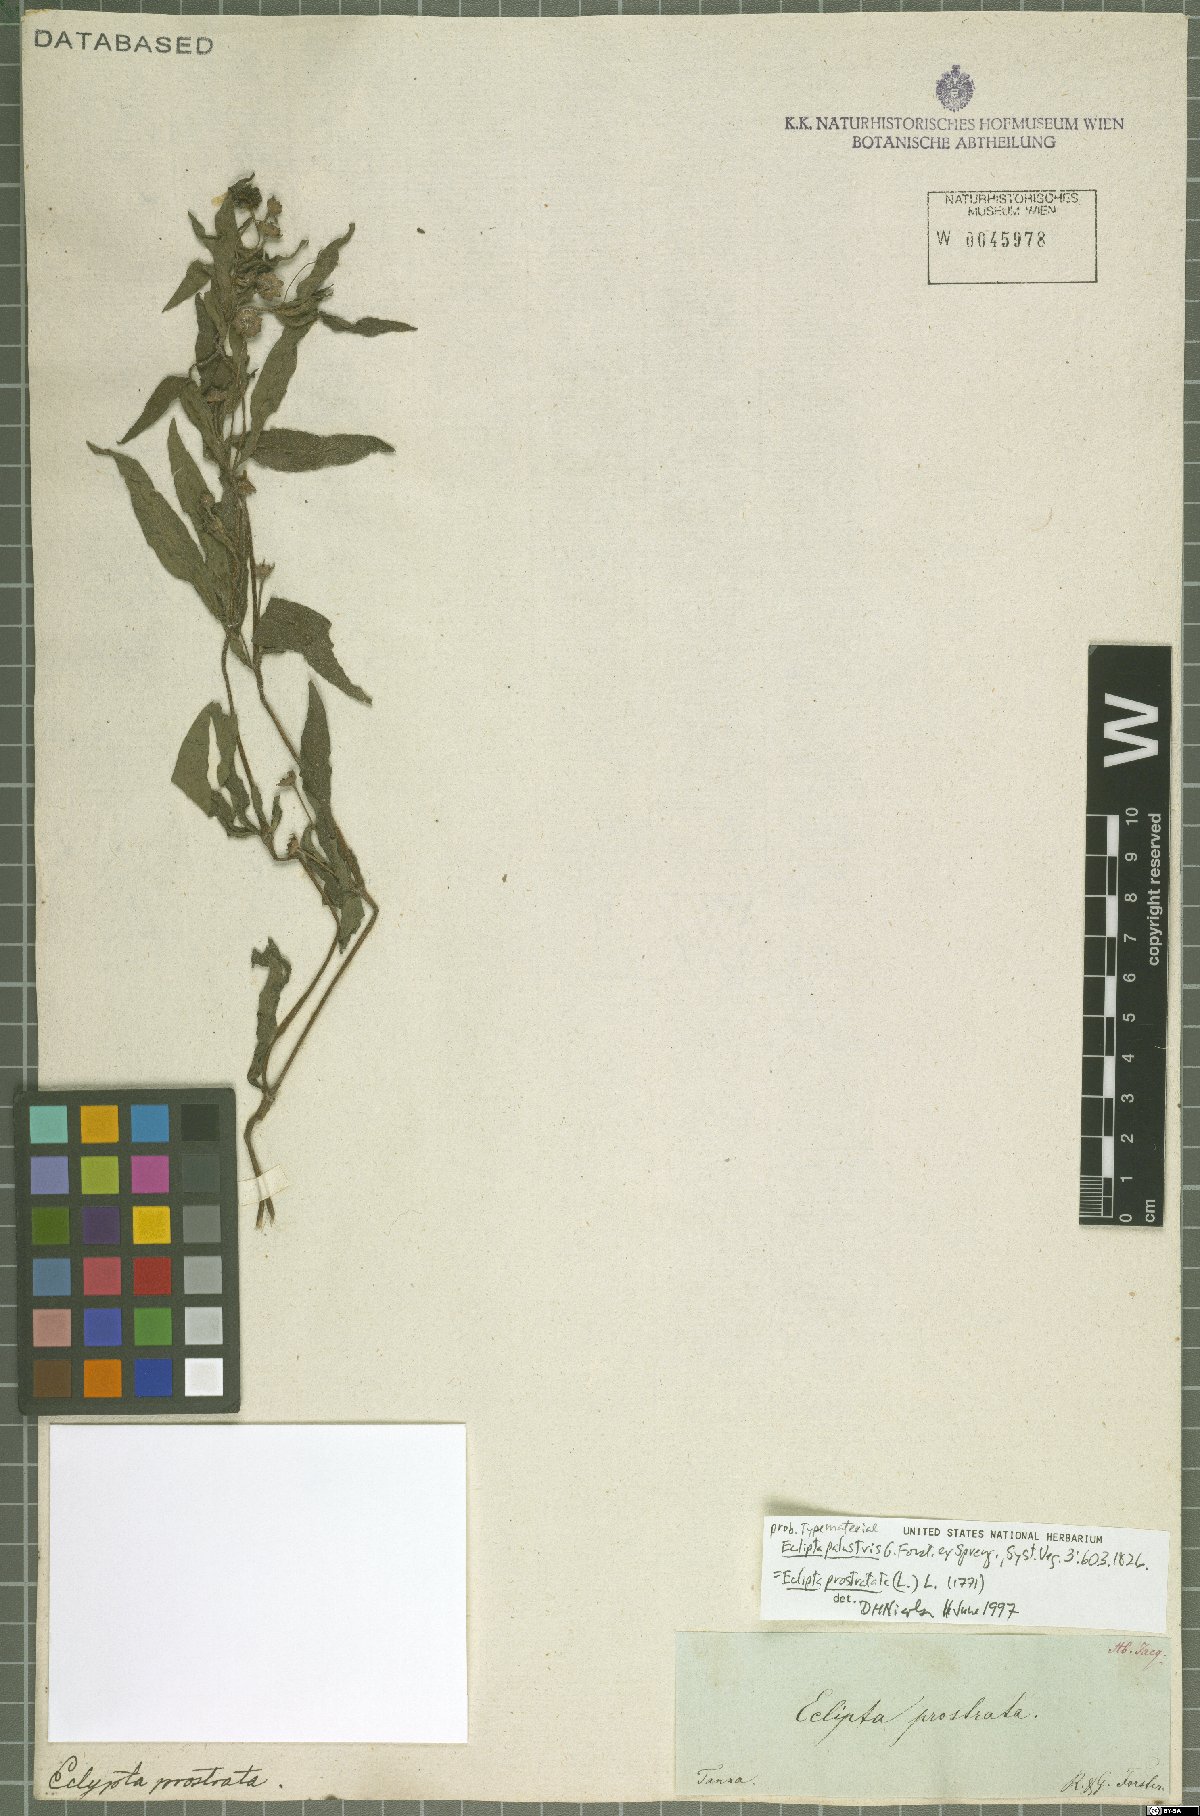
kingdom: Plantae
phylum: Tracheophyta
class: Magnoliopsida
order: Asterales
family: Asteraceae
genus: Eclipta
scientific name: Eclipta prostrata
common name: False daisy
